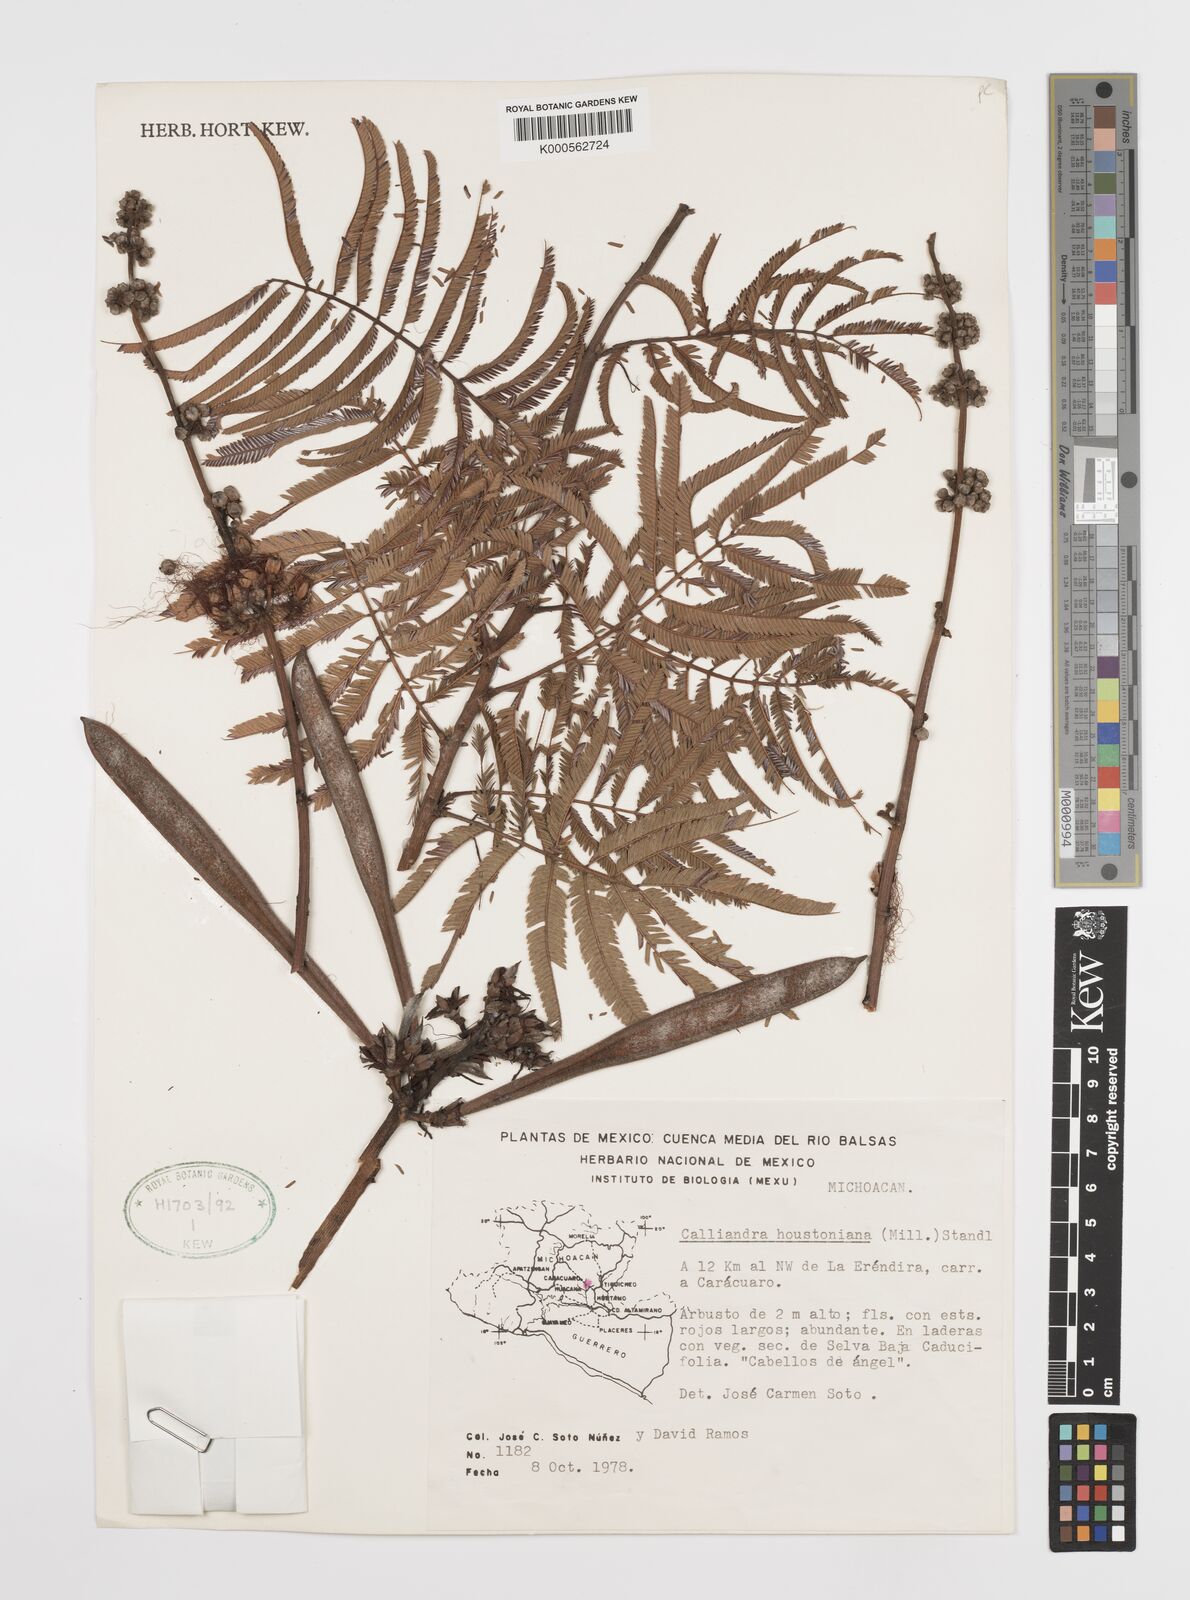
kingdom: Plantae
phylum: Tracheophyta
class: Magnoliopsida
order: Fabales
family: Fabaceae
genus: Calliandra
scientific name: Calliandra houstoniana
